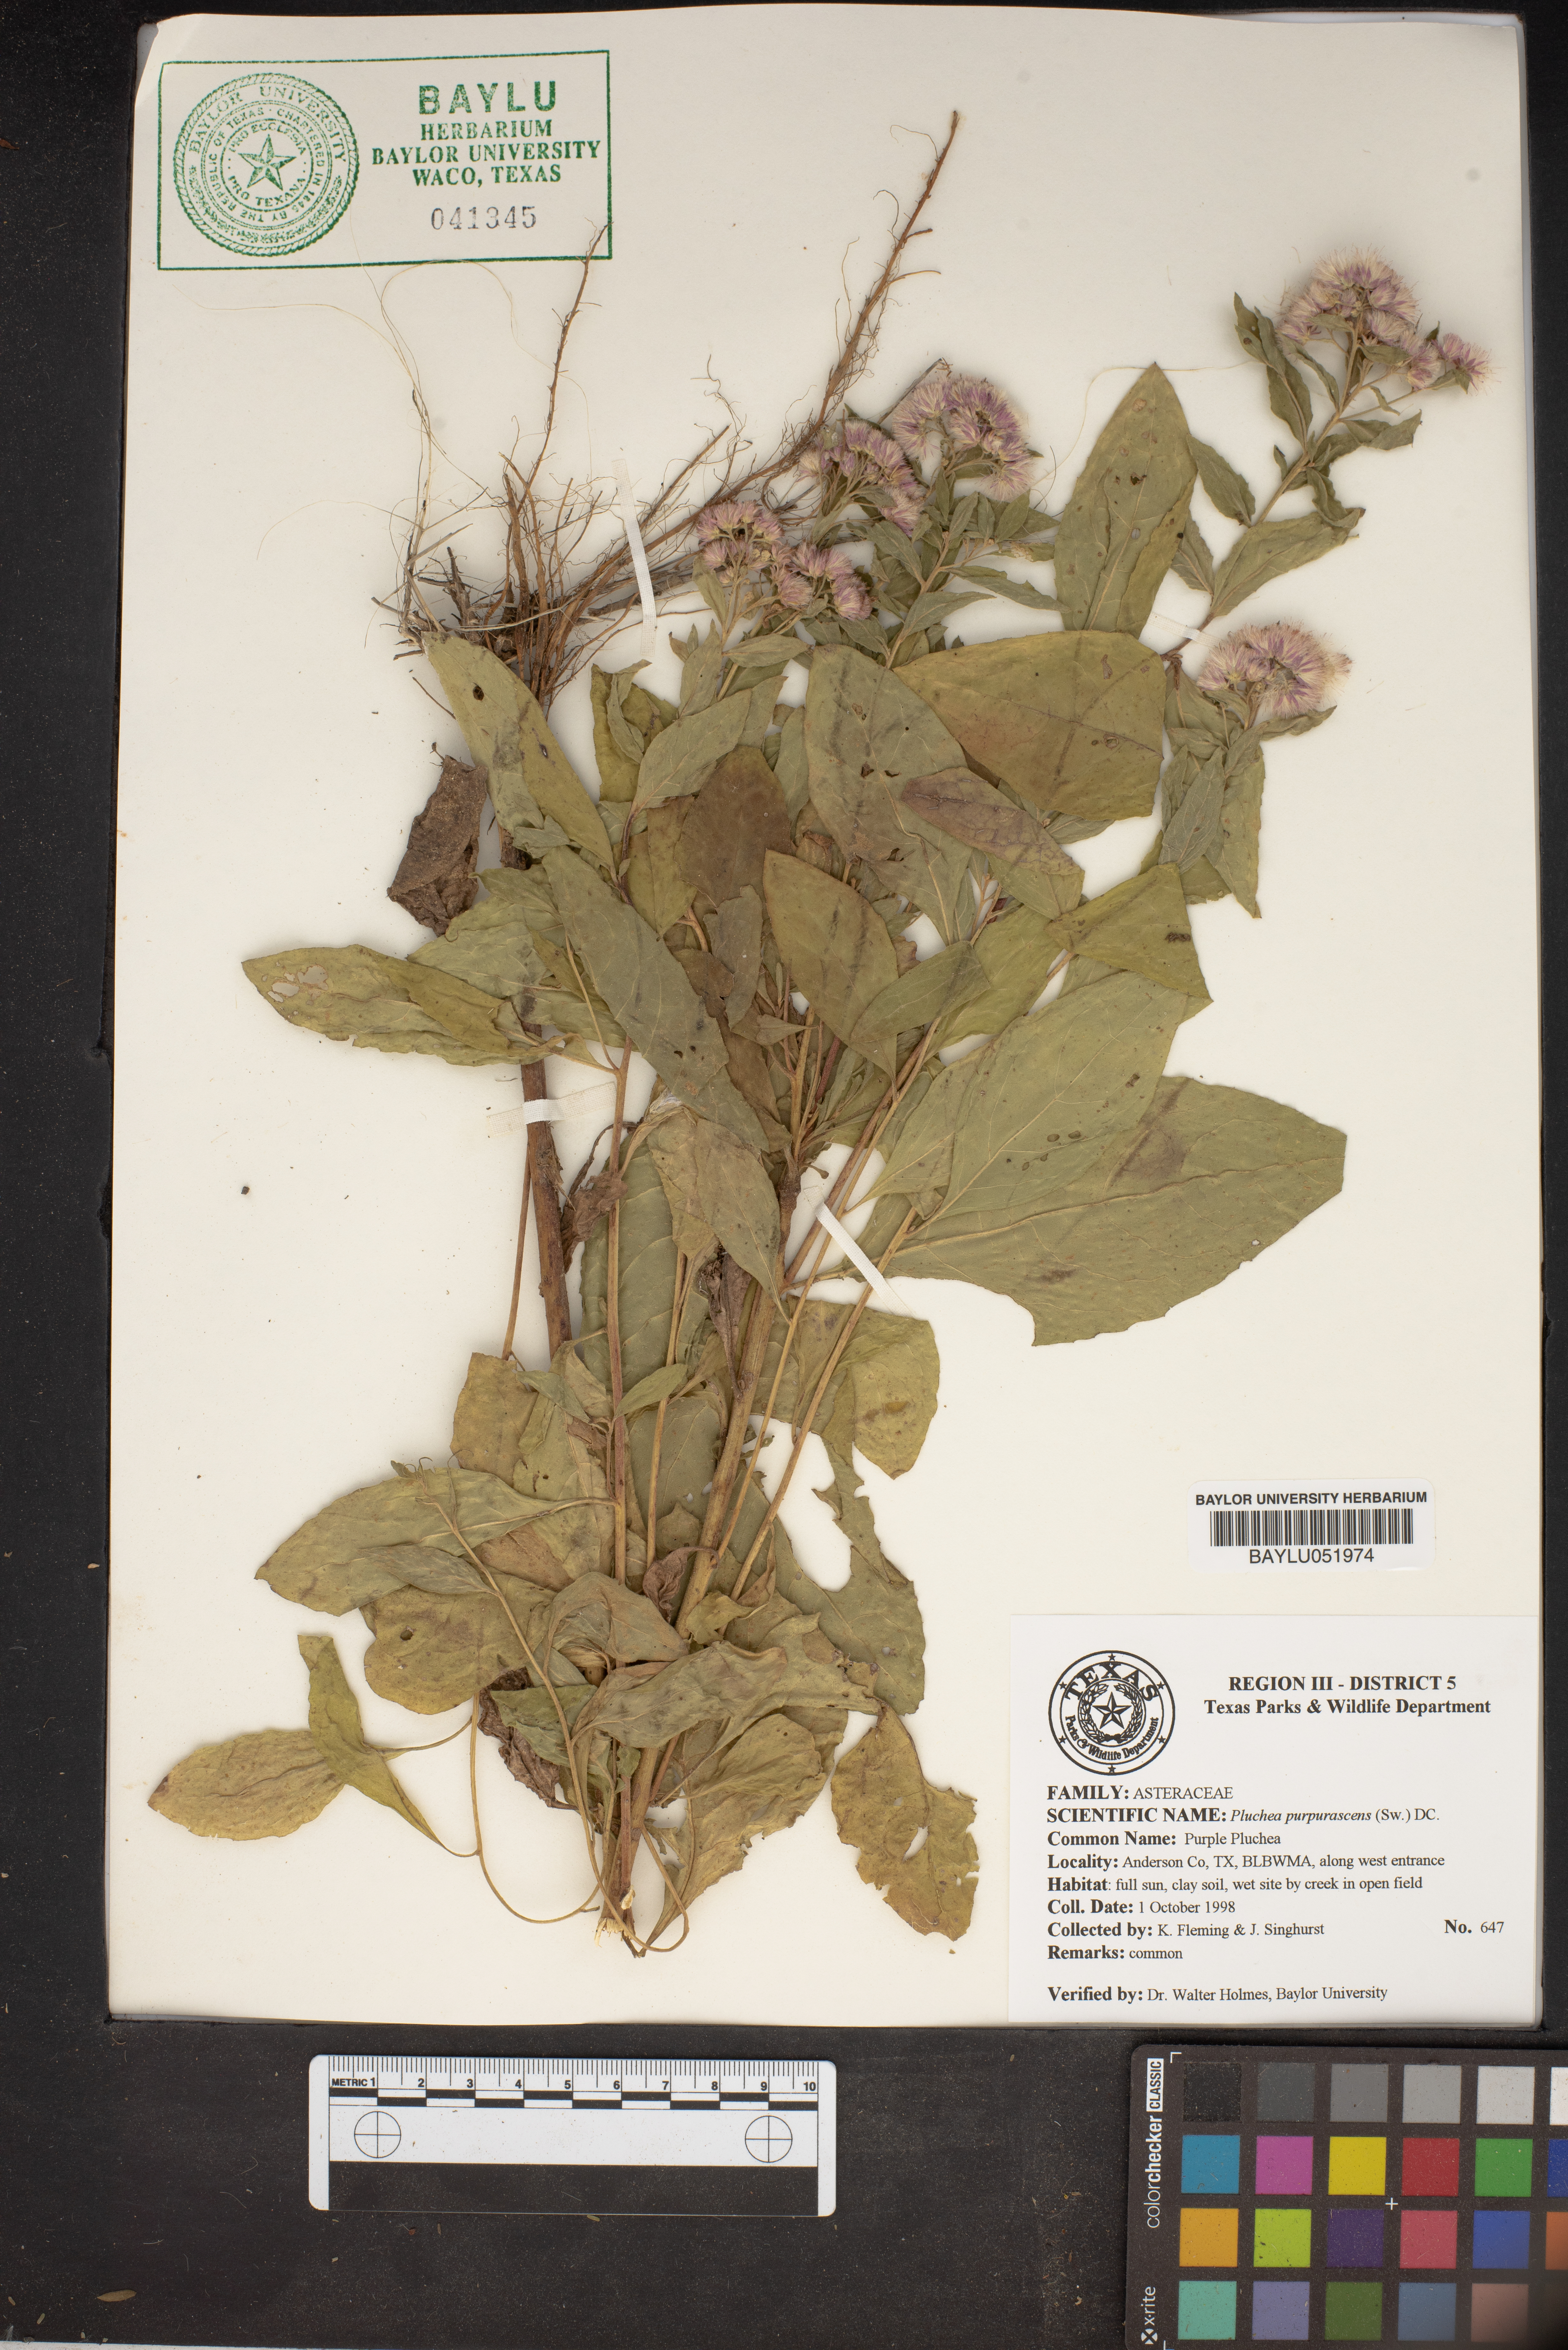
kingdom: Plantae
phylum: Tracheophyta
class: Magnoliopsida
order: Asterales
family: Asteraceae
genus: Pluchea
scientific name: Pluchea odorata
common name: Saltmarsh fleabane
